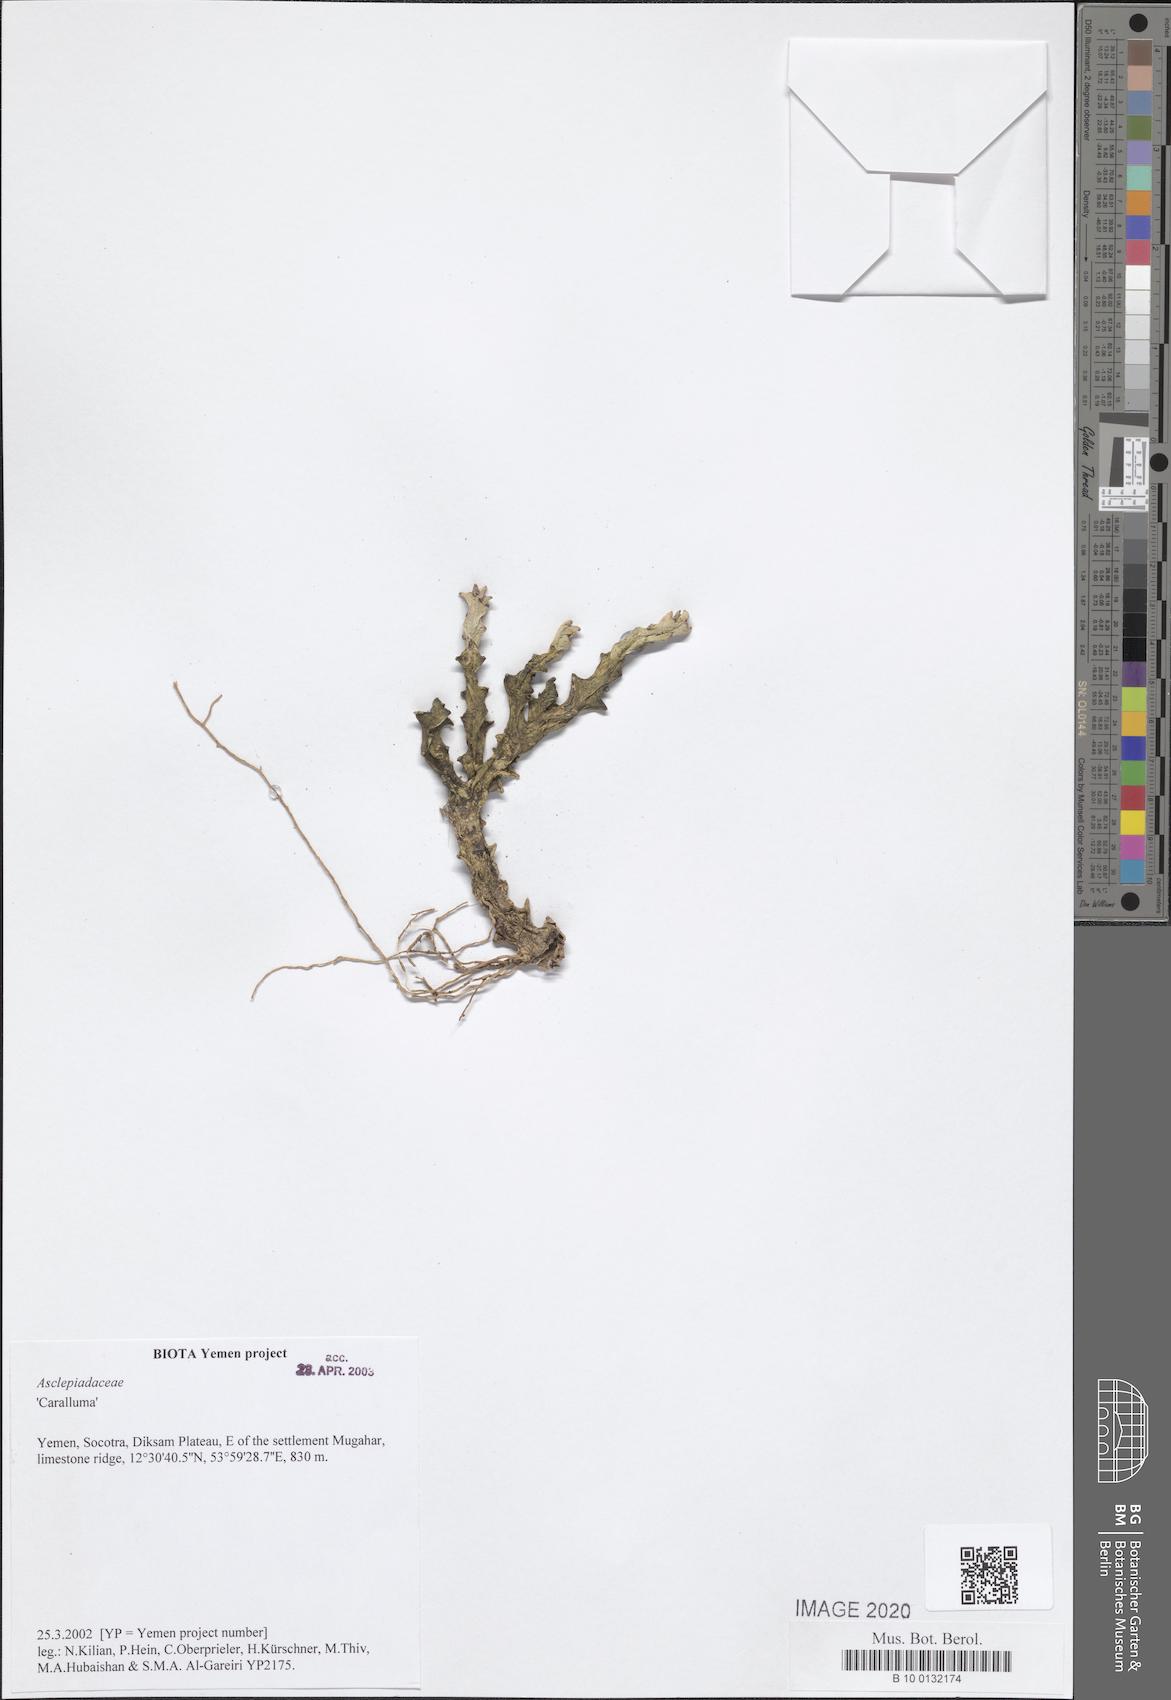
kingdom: Plantae
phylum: Tracheophyta
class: Magnoliopsida
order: Gentianales
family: Apocynaceae
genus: Ceropegia
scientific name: Ceropegia socotrana
